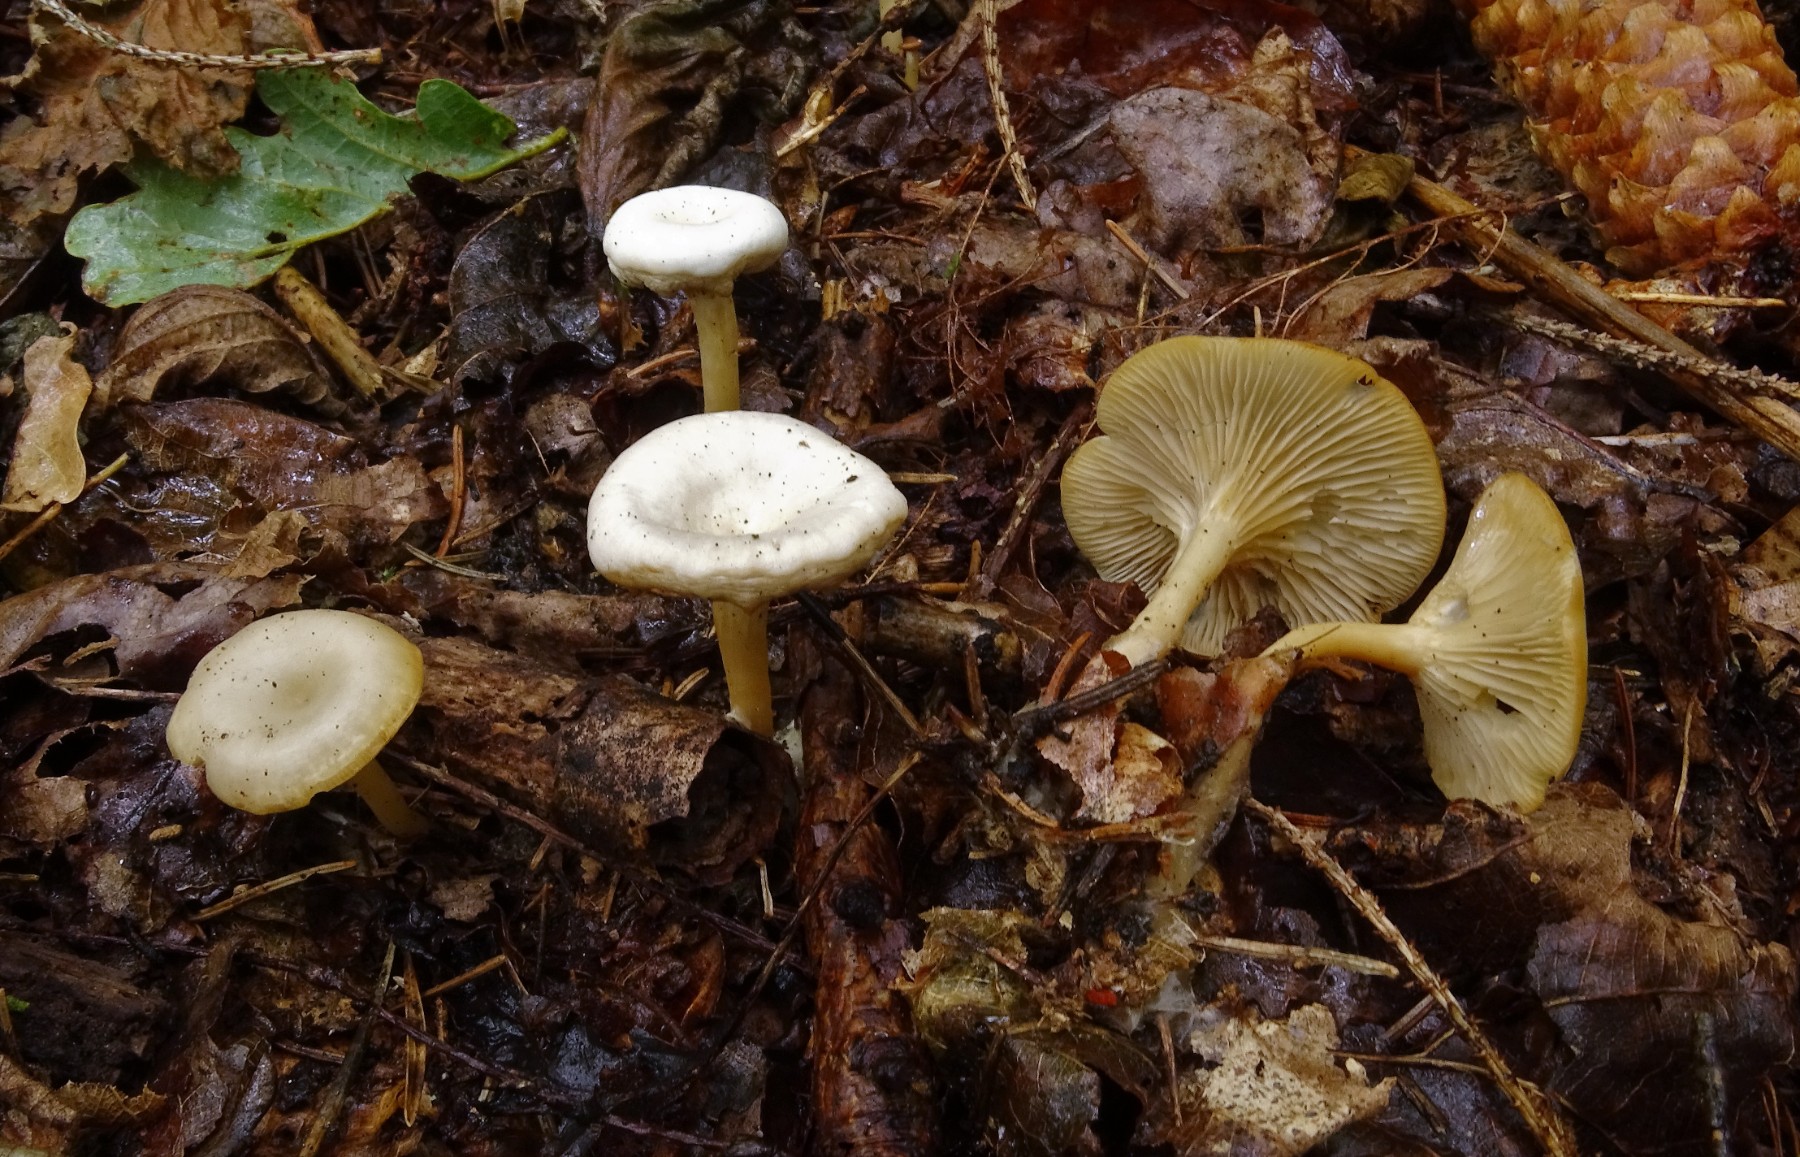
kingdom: Fungi
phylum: Basidiomycota
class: Agaricomycetes
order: Agaricales
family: Tricholomataceae
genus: Clitocybe
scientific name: Clitocybe phaeophthalma
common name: stinkende tragthat
